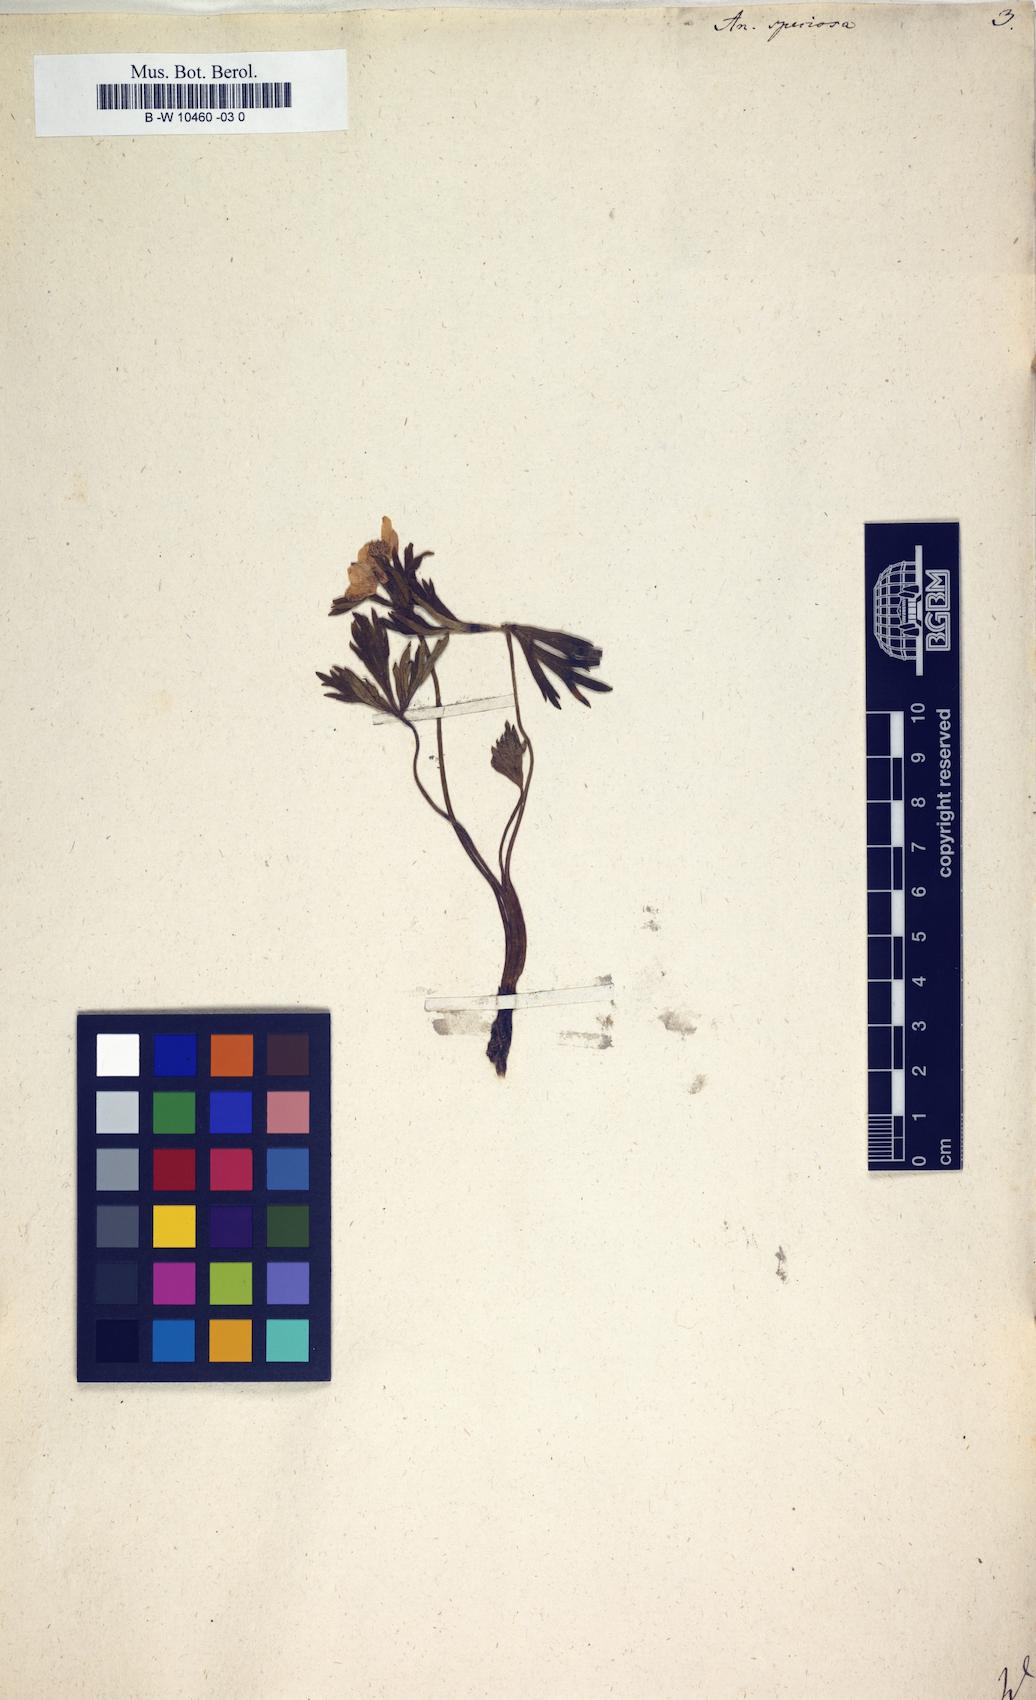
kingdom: Plantae
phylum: Tracheophyta
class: Magnoliopsida
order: Ranunculales
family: Ranunculaceae
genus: Anemonastrum
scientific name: Anemonastrum narcissiflorum
